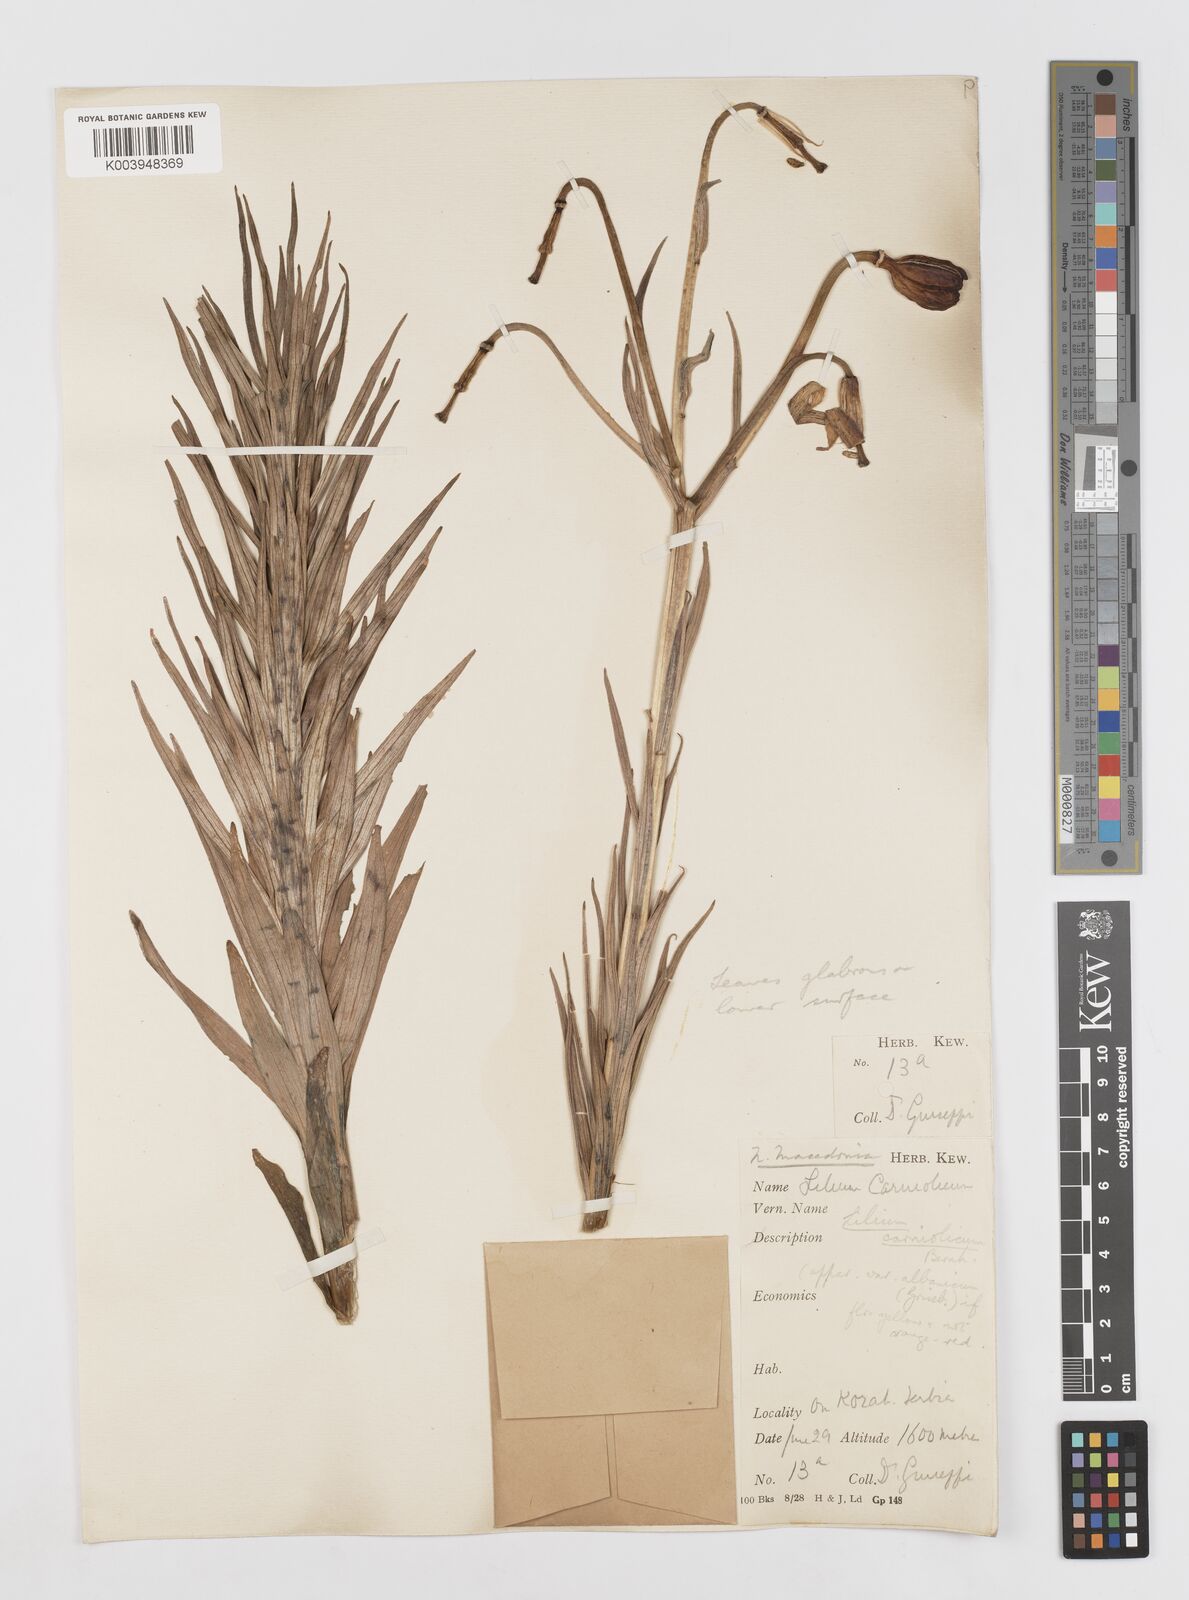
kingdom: Plantae
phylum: Tracheophyta
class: Liliopsida
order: Liliales
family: Liliaceae
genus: Lilium
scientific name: Lilium carniolicum
